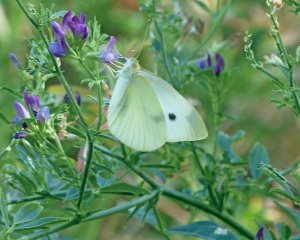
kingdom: Animalia
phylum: Arthropoda
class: Insecta
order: Lepidoptera
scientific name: Lepidoptera
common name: Butterflies
